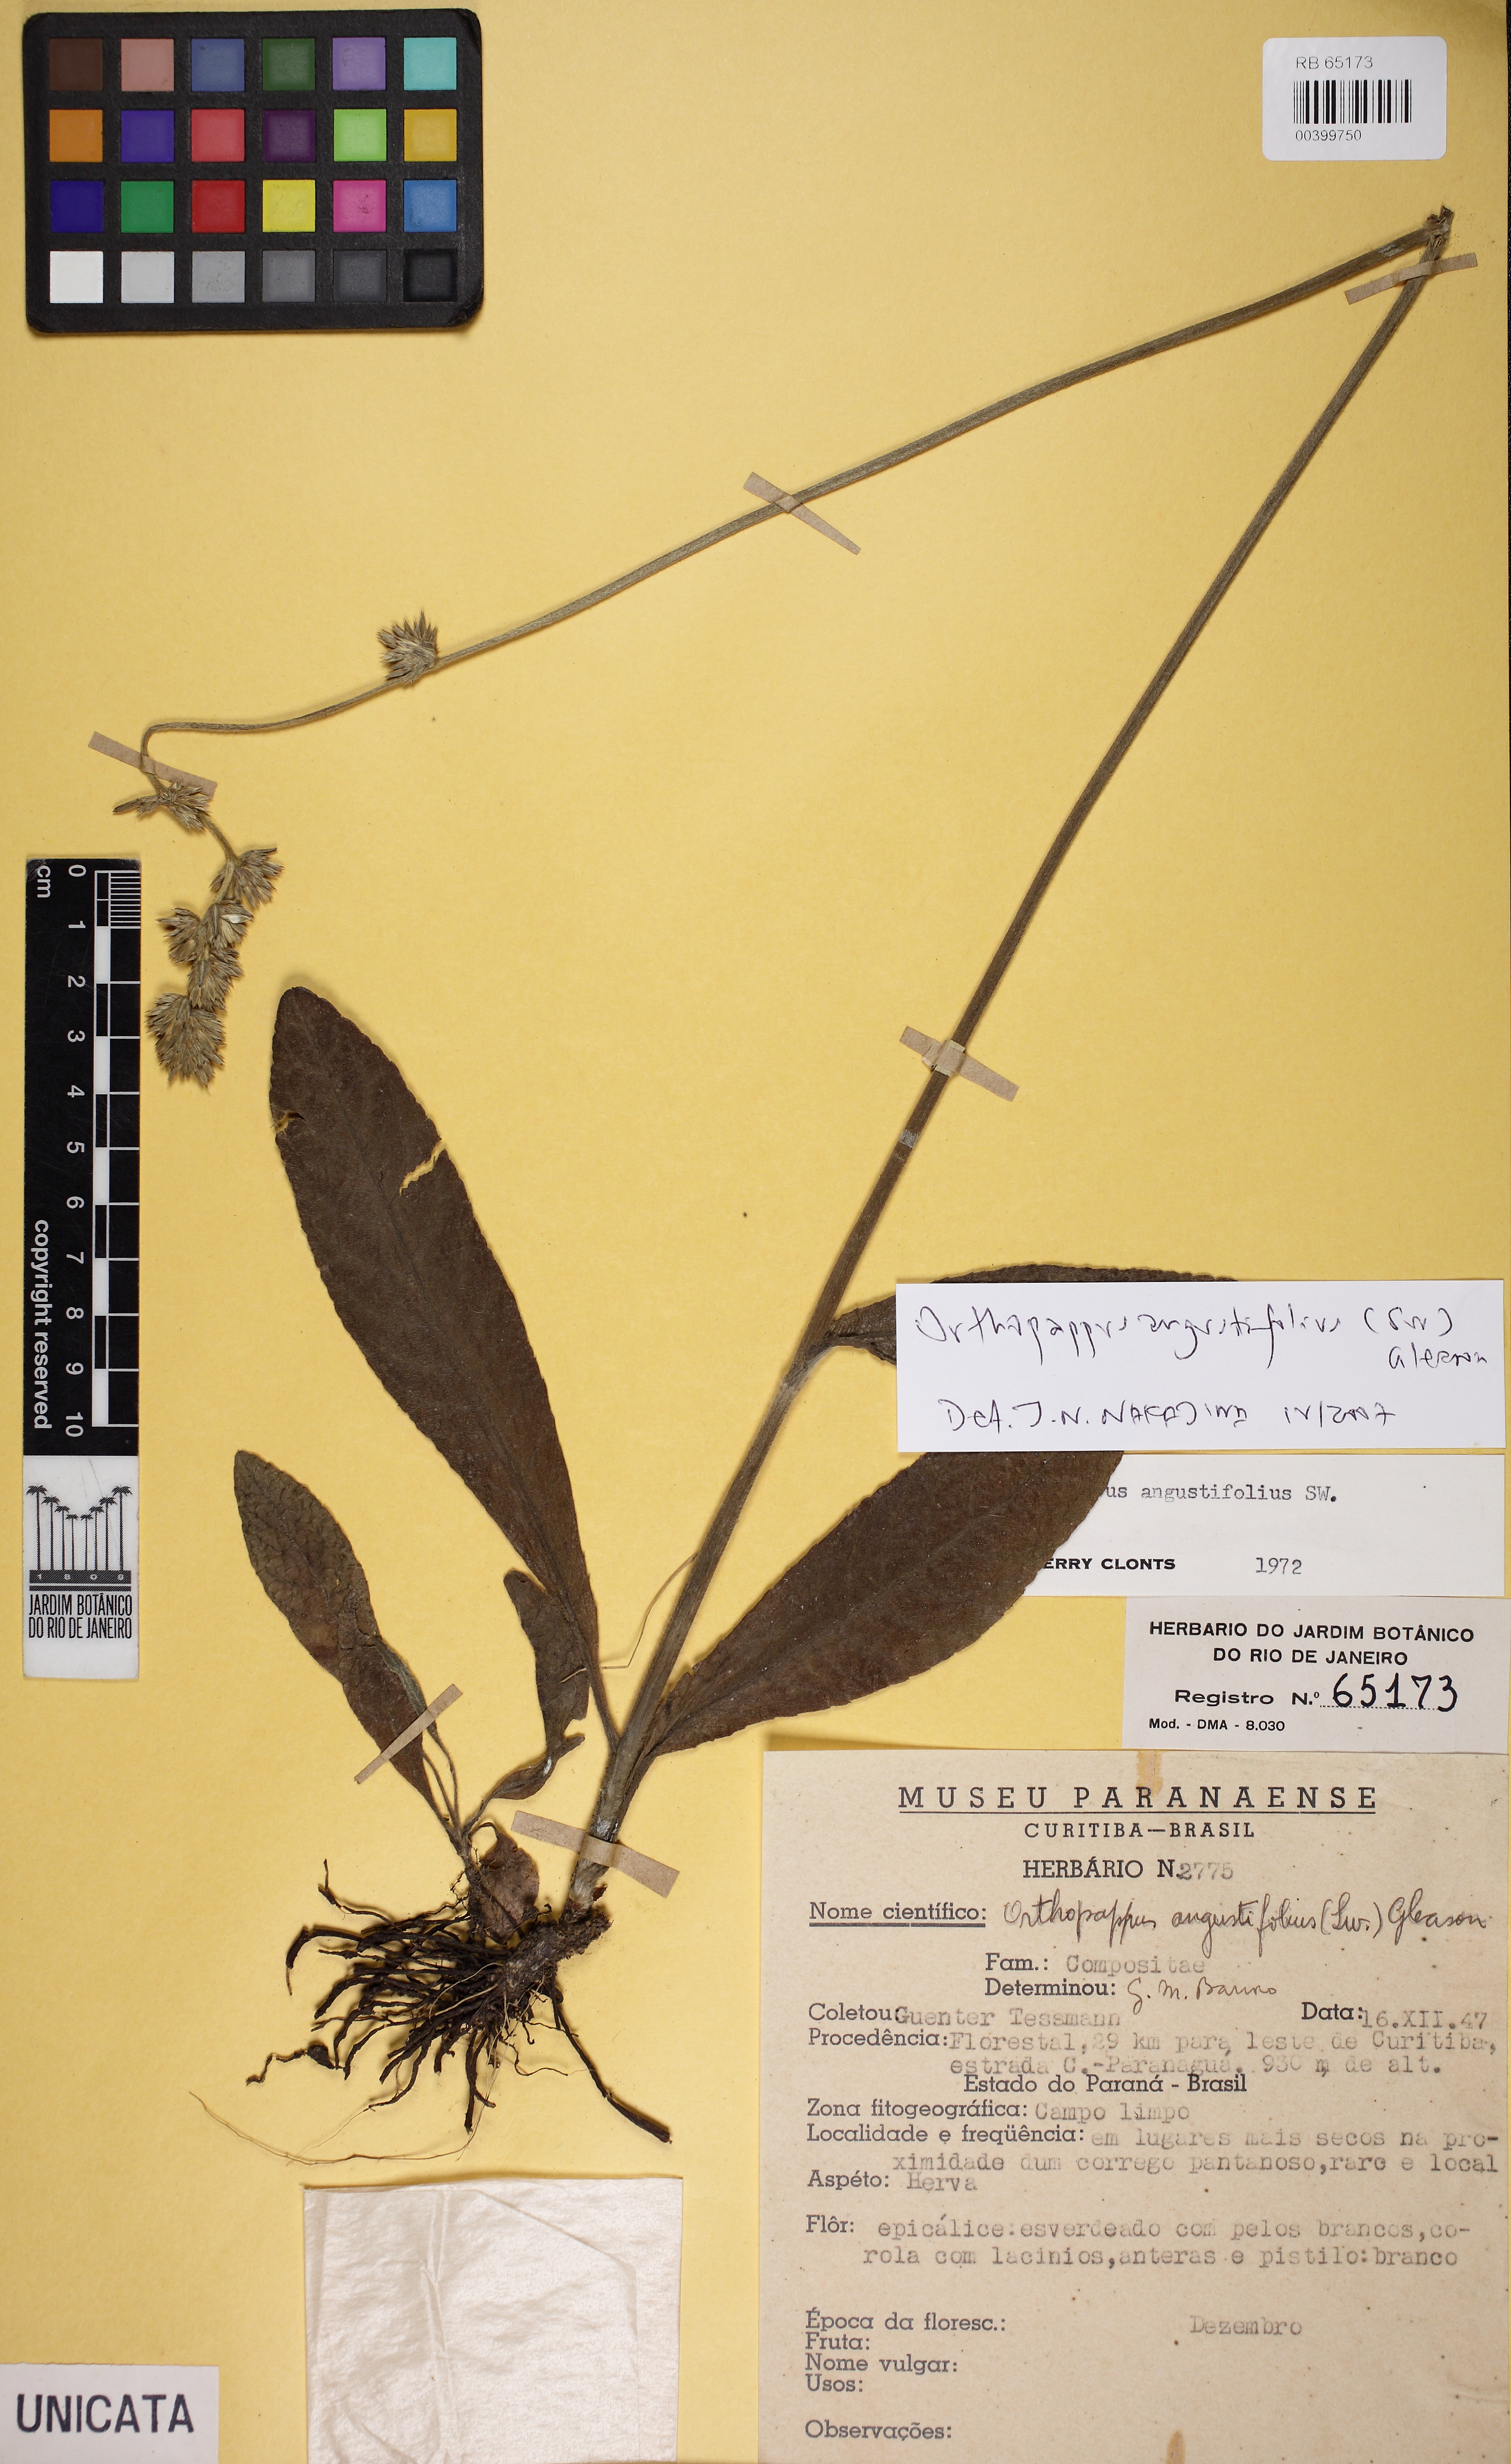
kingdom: Plantae
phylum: Tracheophyta
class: Magnoliopsida
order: Asterales
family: Asteraceae
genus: Orthopappus
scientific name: Orthopappus angustifolius
